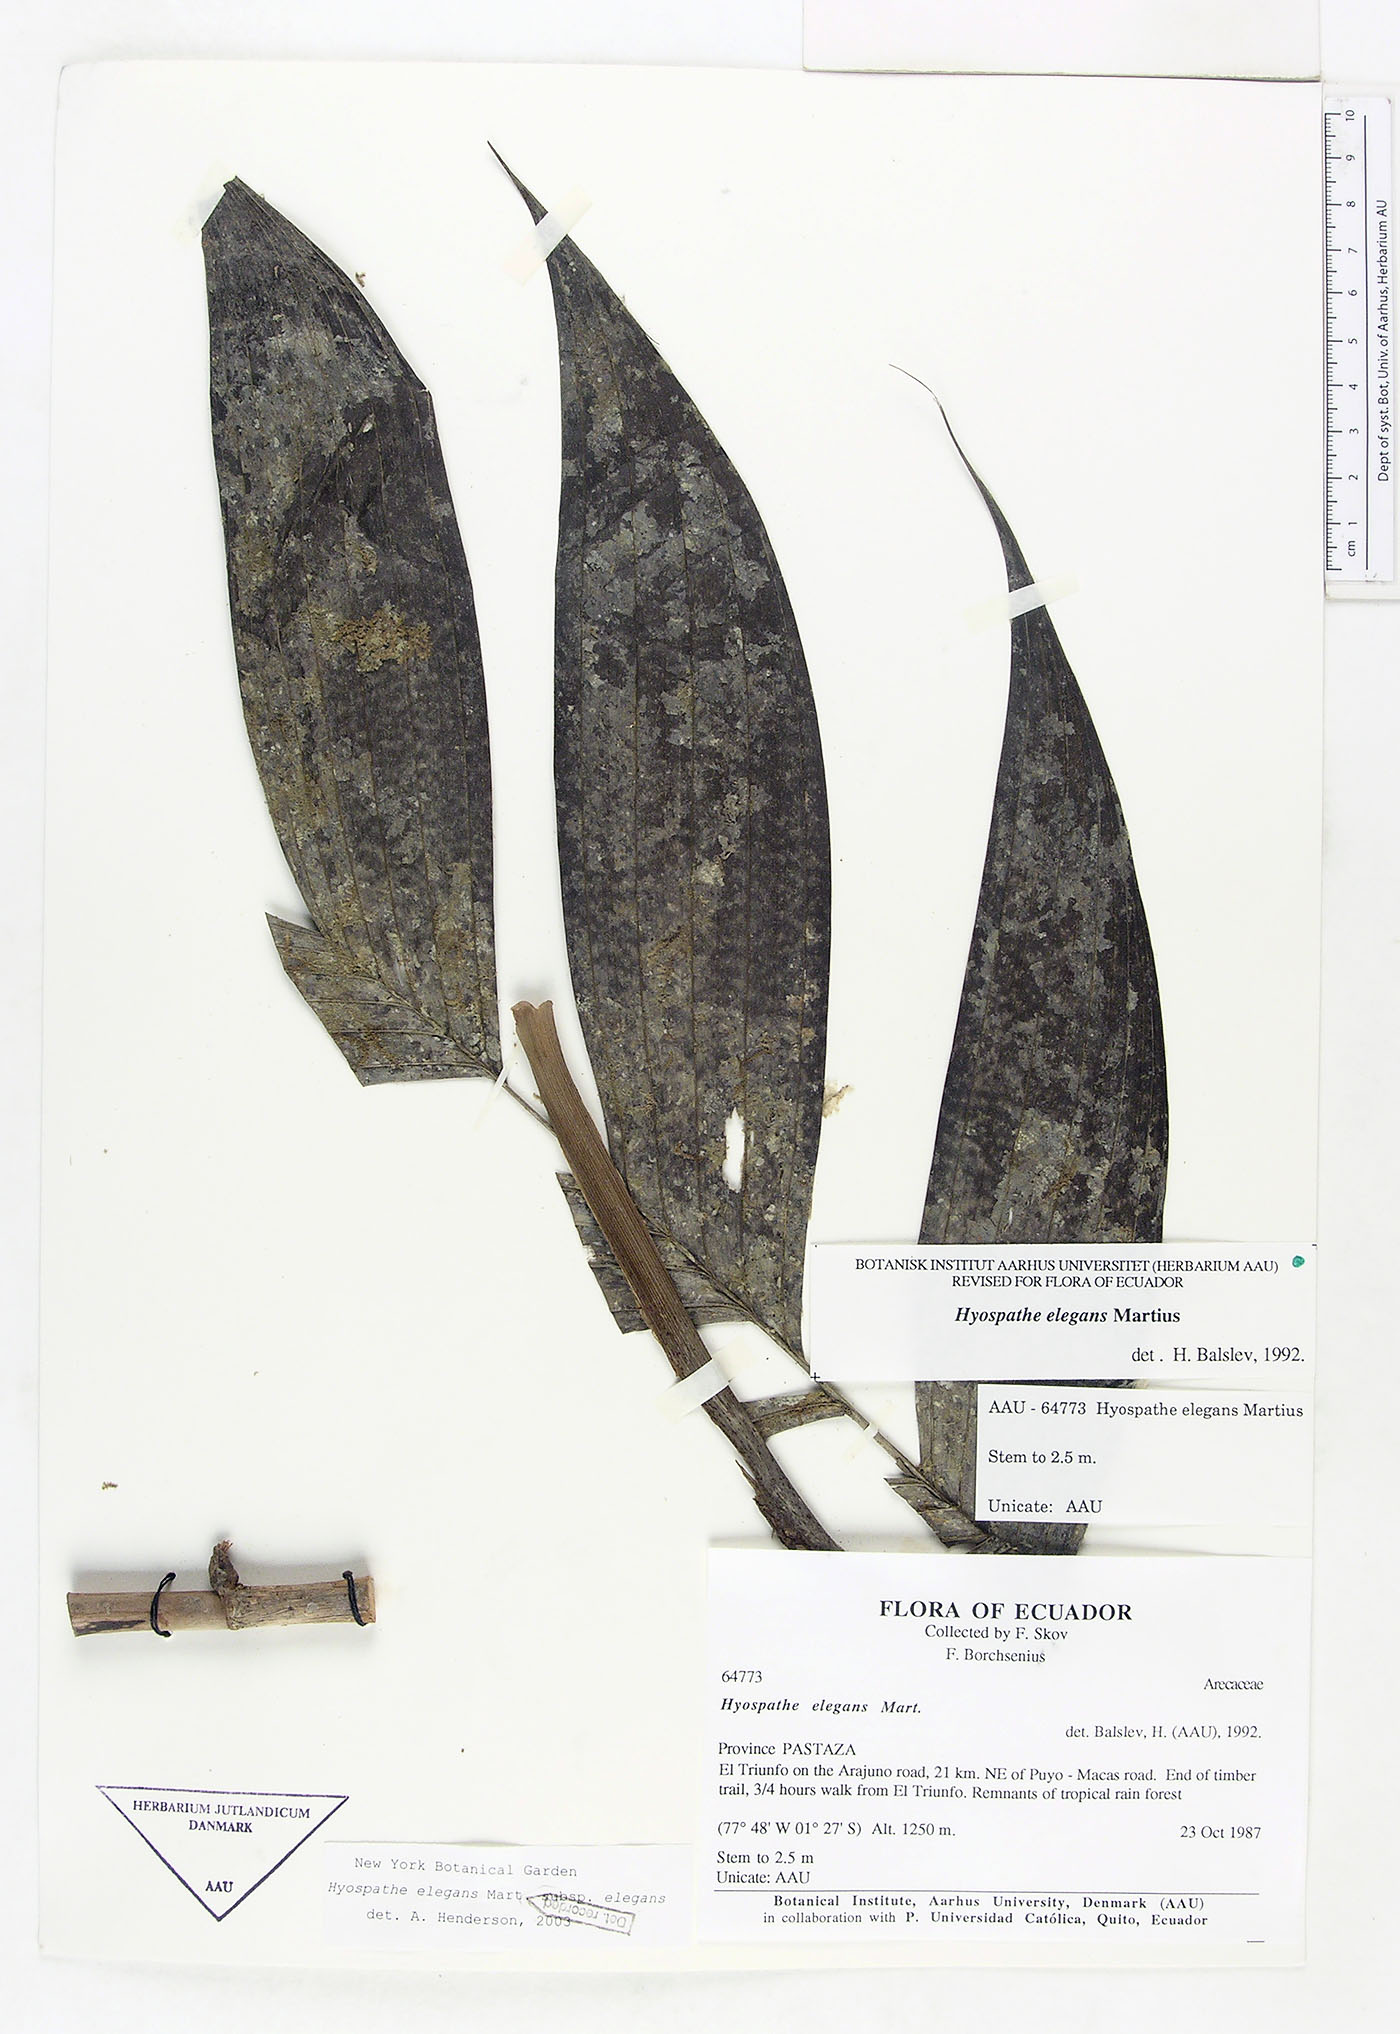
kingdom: Plantae
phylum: Tracheophyta
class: Liliopsida
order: Arecales
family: Arecaceae
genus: Hyospathe
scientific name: Hyospathe elegans
